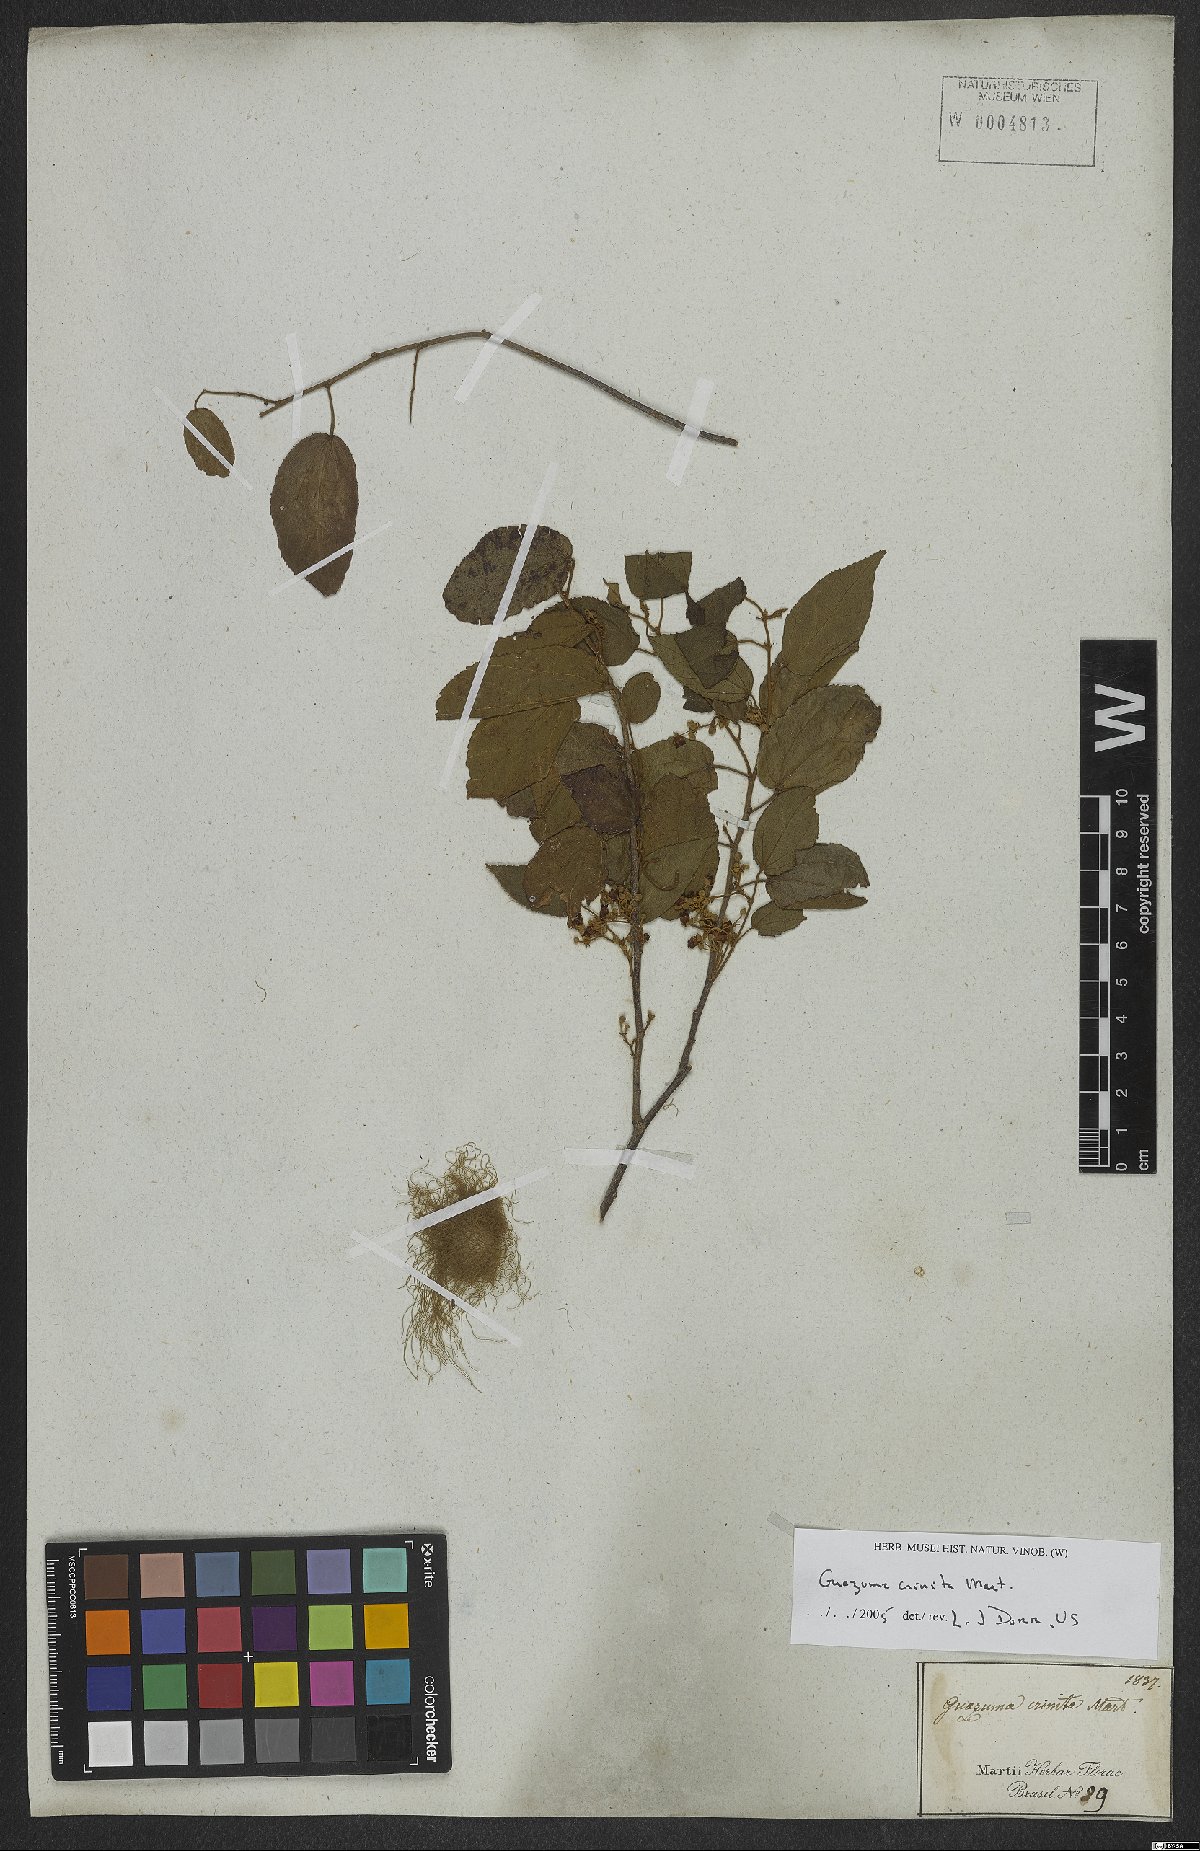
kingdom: Plantae
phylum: Tracheophyta
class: Magnoliopsida
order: Malvales
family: Malvaceae
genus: Guazuma
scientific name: Guazuma crinita
